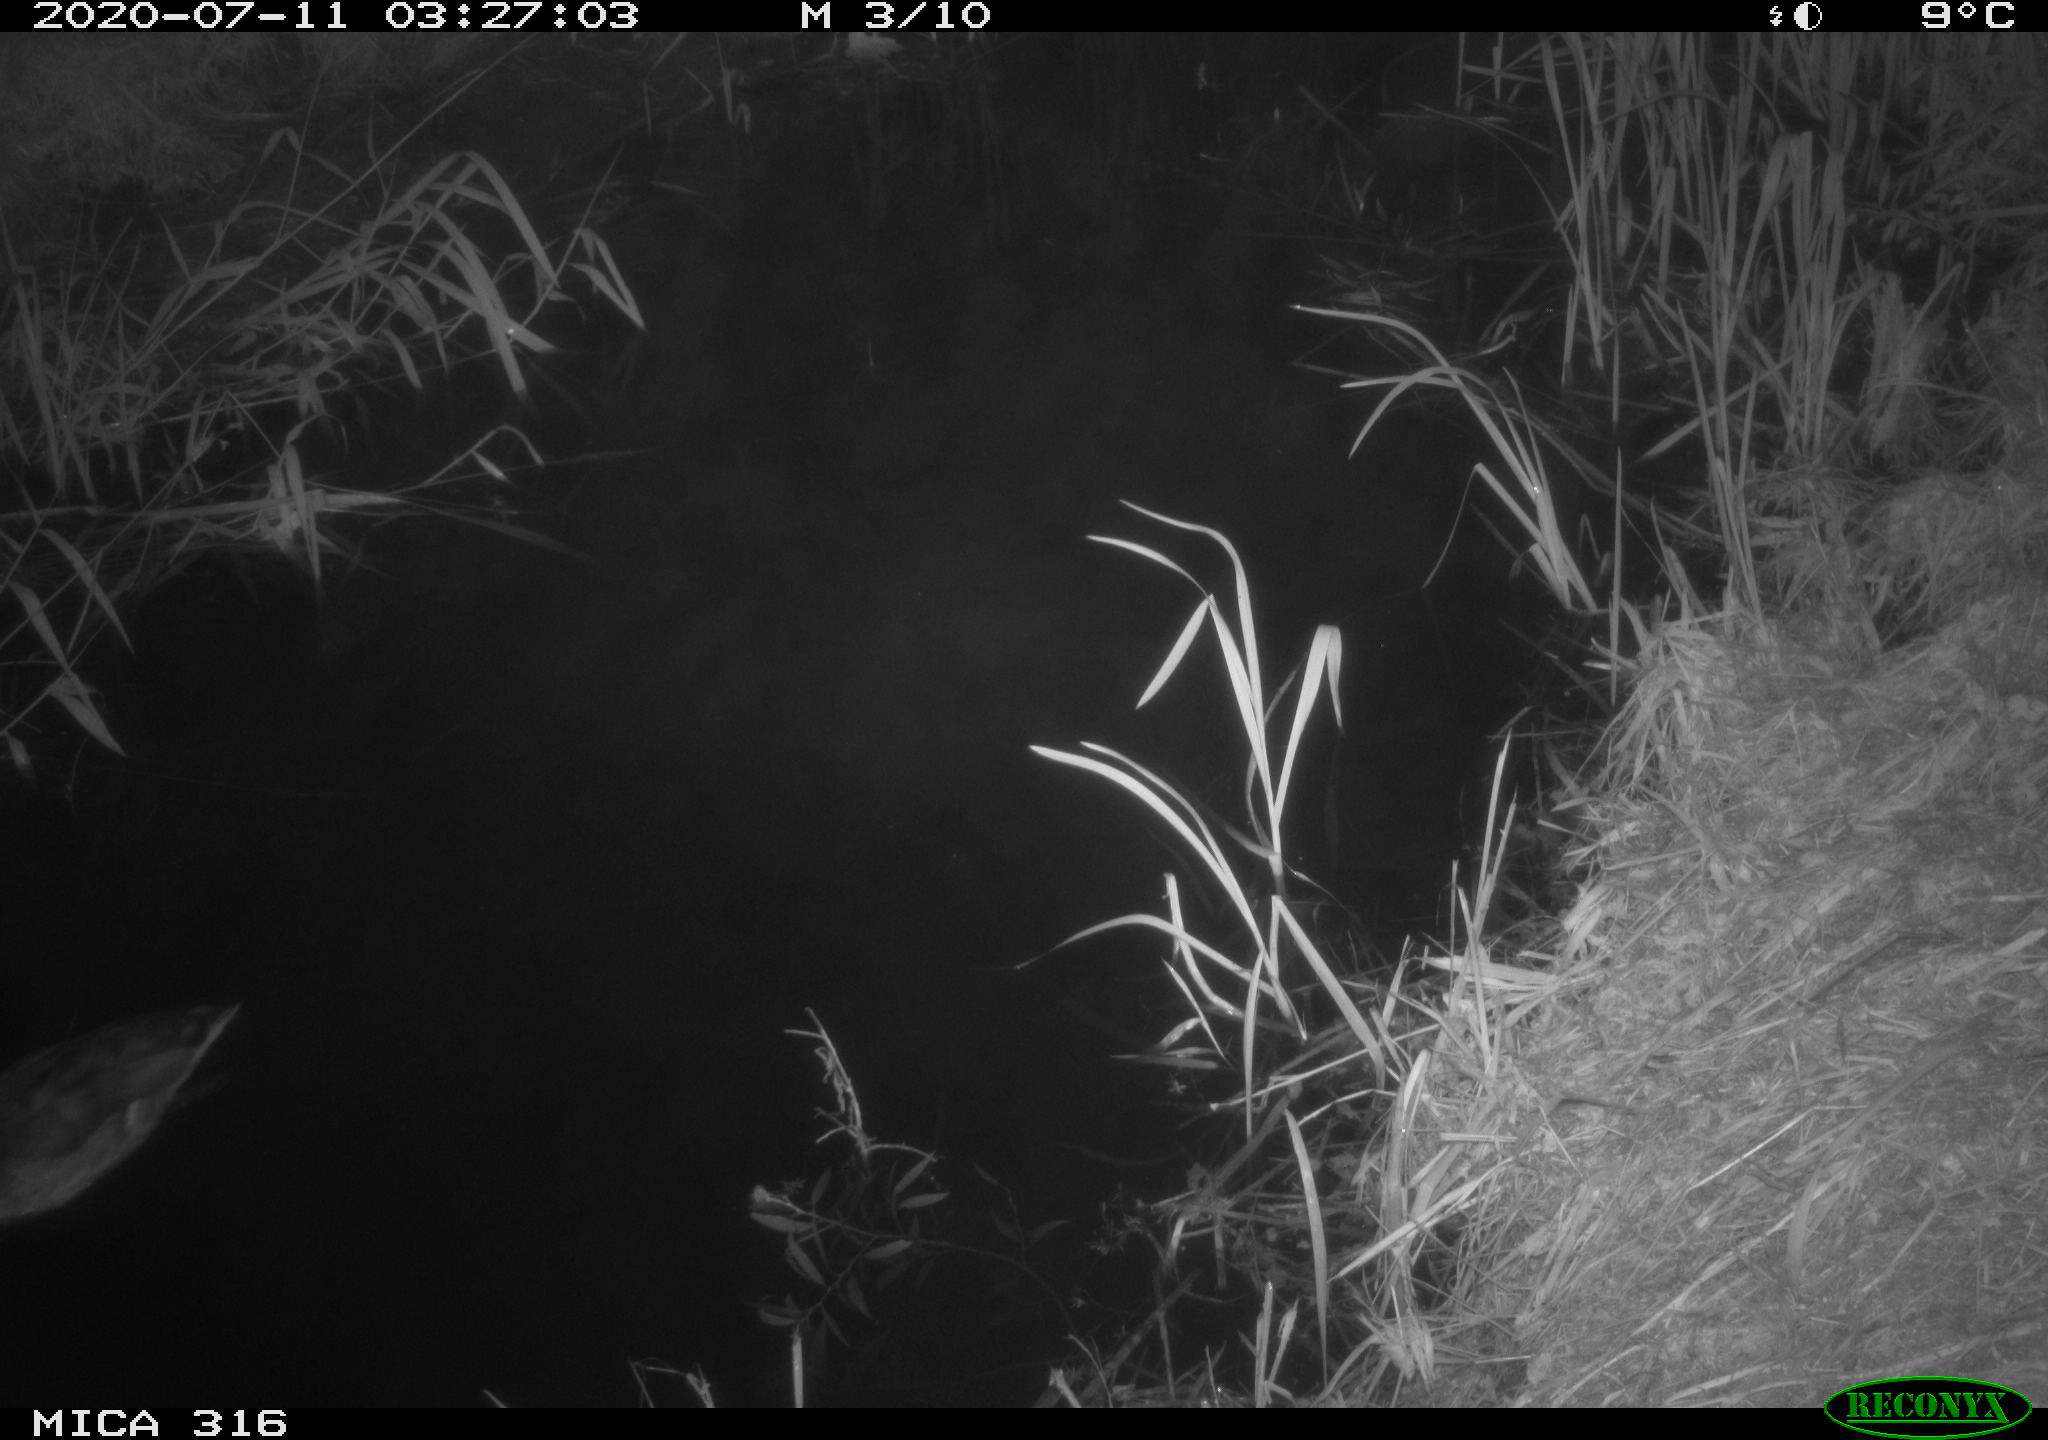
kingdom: Animalia
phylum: Chordata
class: Aves
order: Anseriformes
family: Anatidae
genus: Anas
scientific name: Anas platyrhynchos
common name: Mallard
